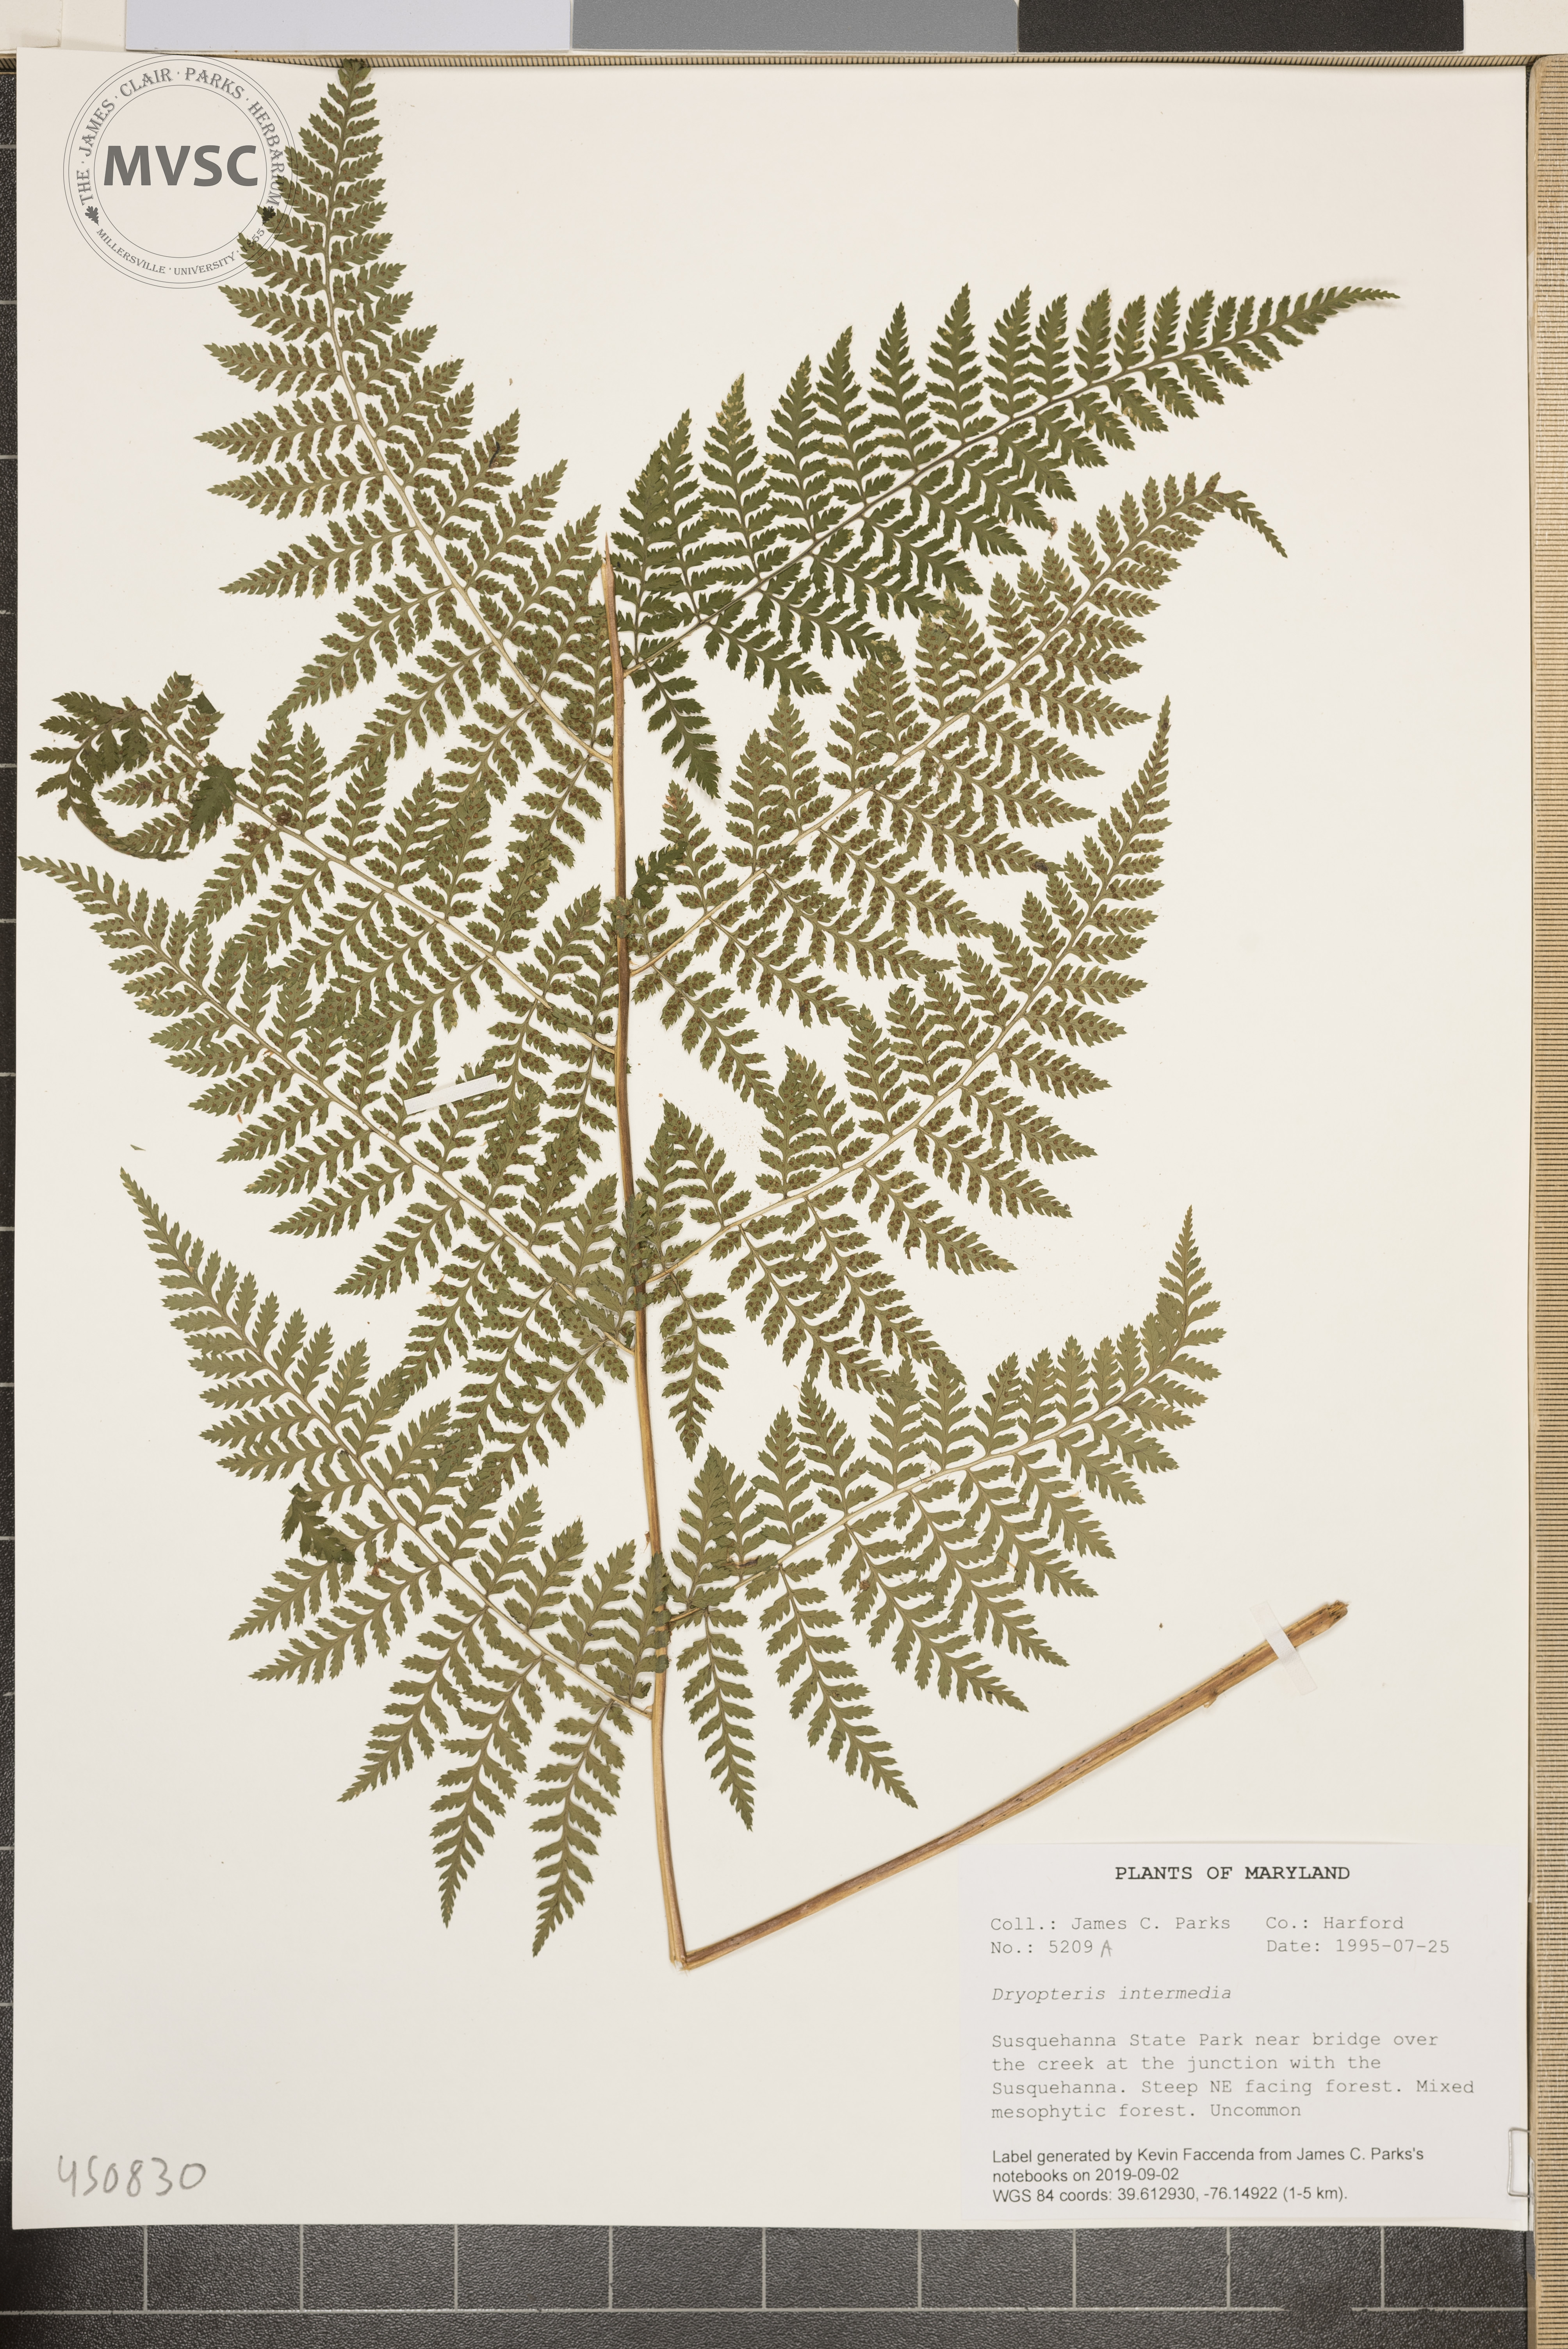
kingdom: Plantae
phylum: Tracheophyta
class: Polypodiopsida
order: Polypodiales
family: Dryopteridaceae
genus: Dryopteris
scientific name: Dryopteris intermedia
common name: Evergreen wood fern
